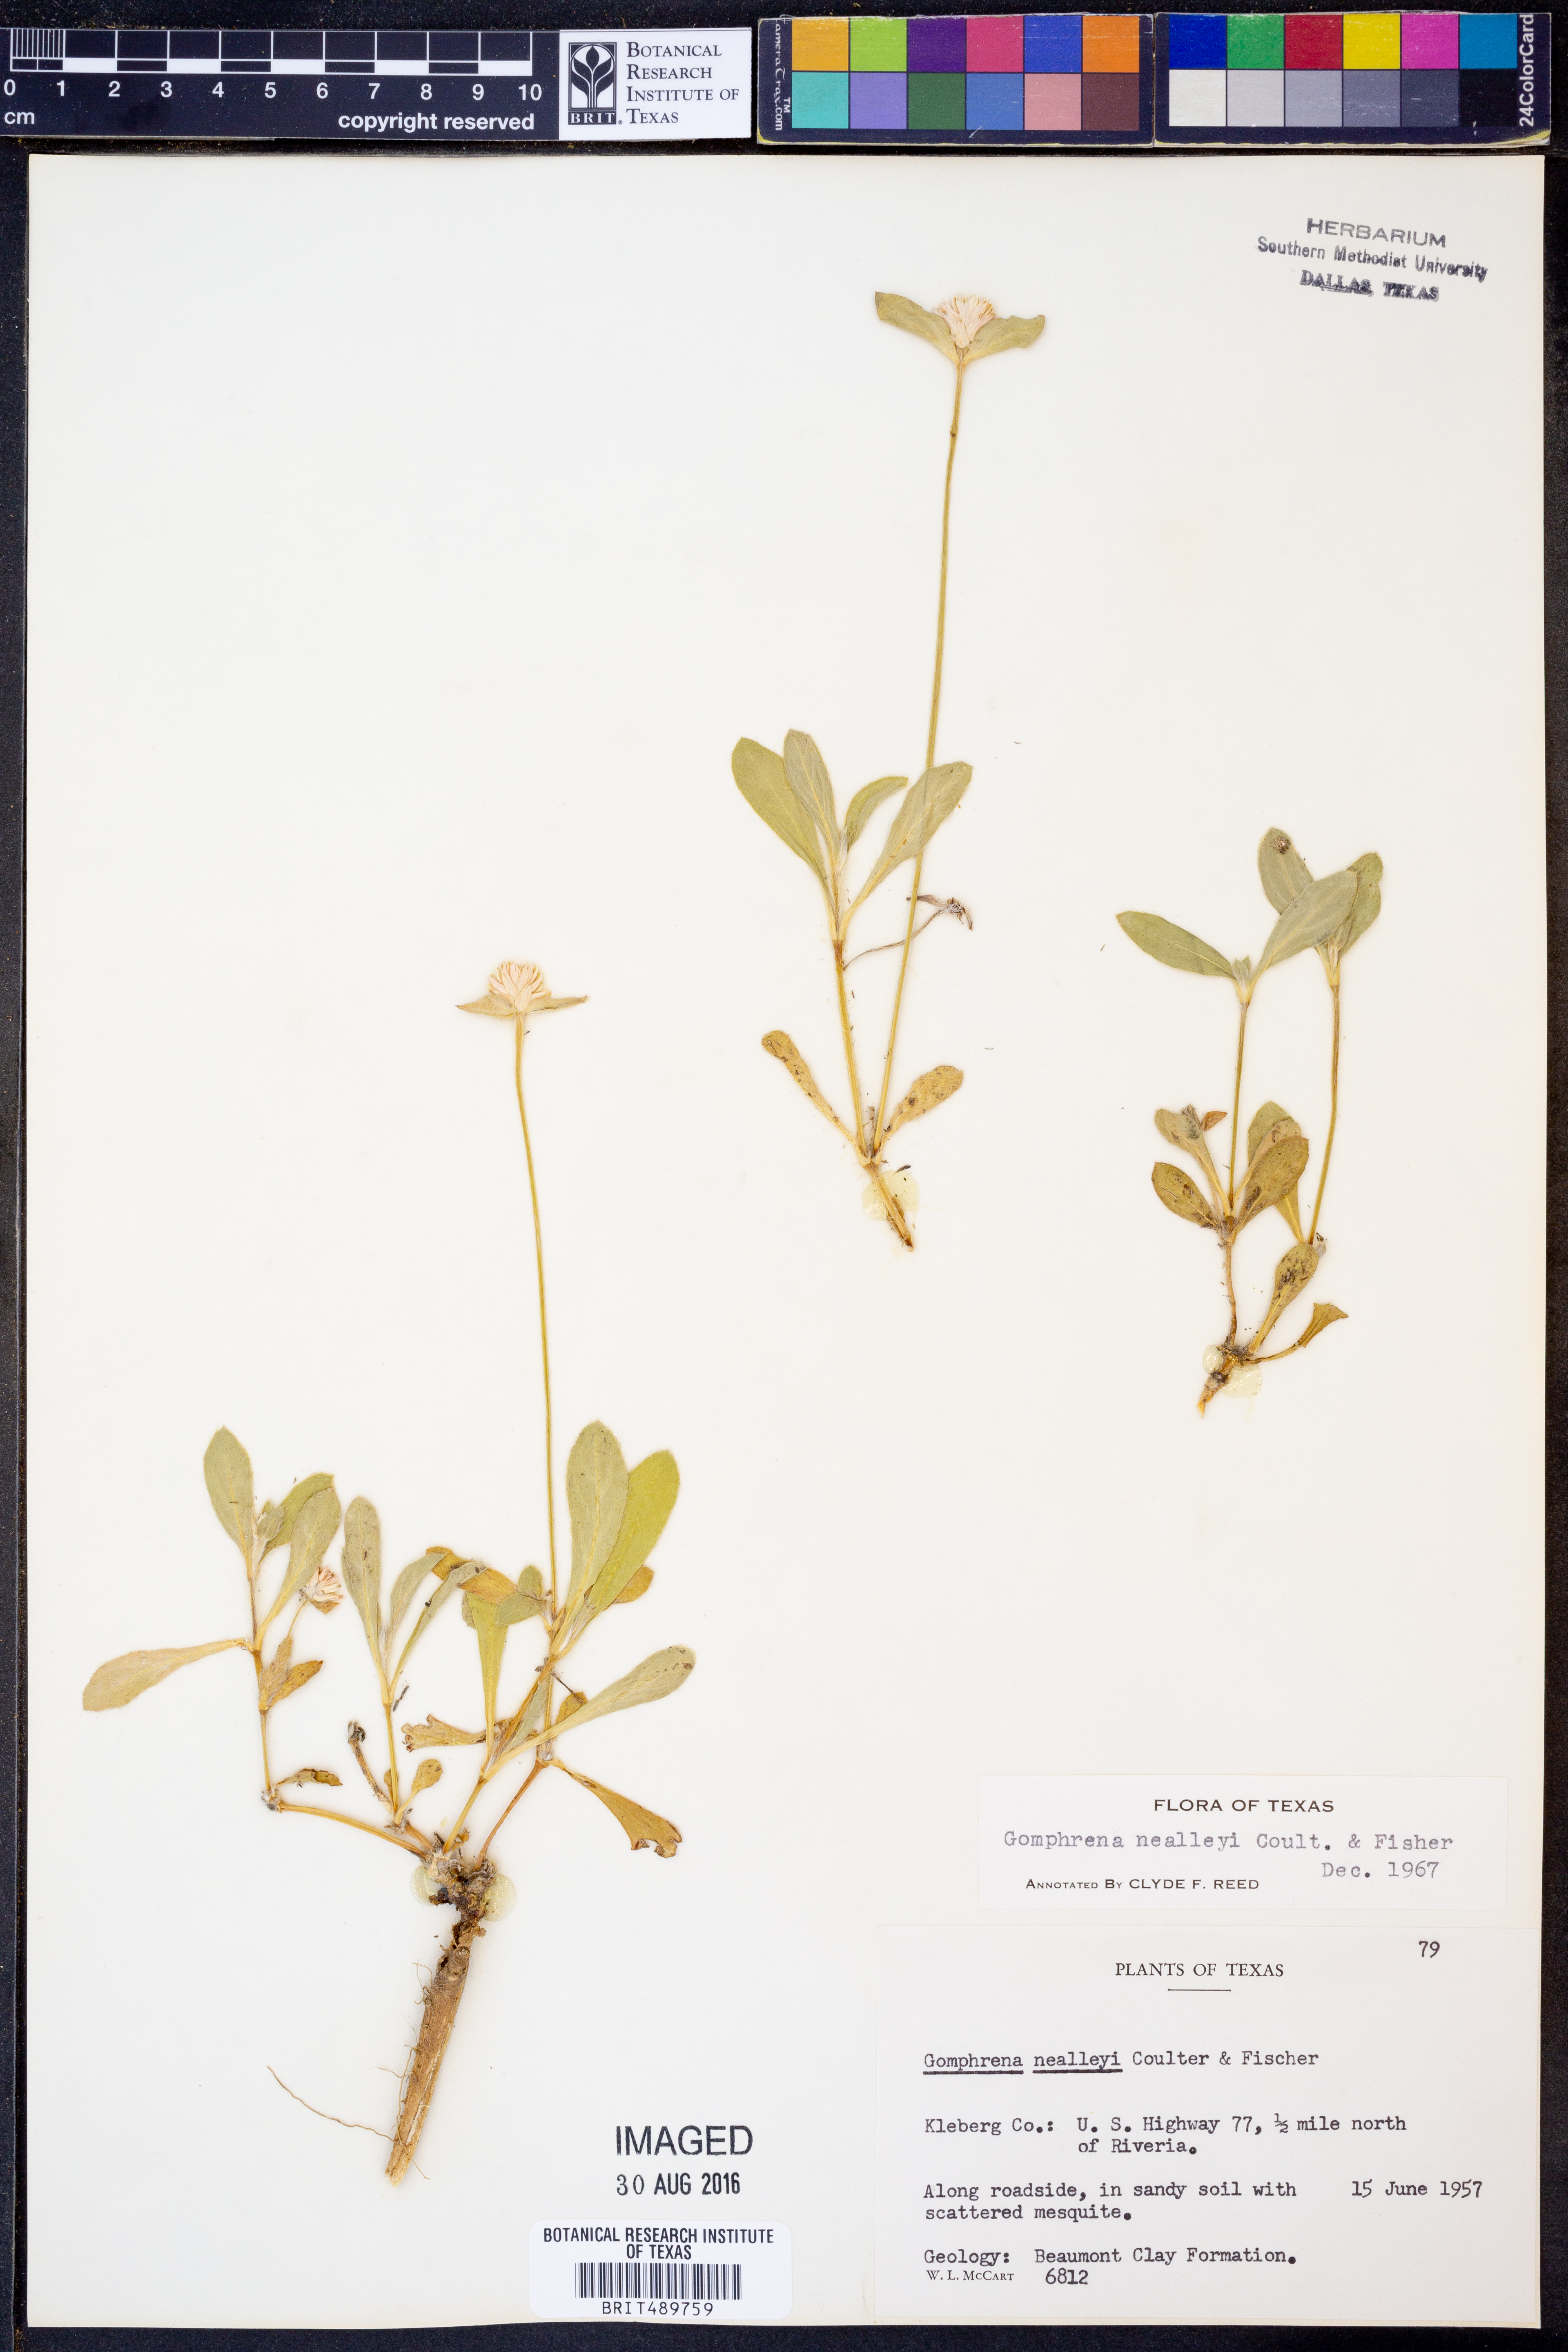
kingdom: Plantae
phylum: Tracheophyta
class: Magnoliopsida
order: Caryophyllales
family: Amaranthaceae
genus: Gomphrena
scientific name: Gomphrena nealleyi
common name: Nealley's globe-amaranth
